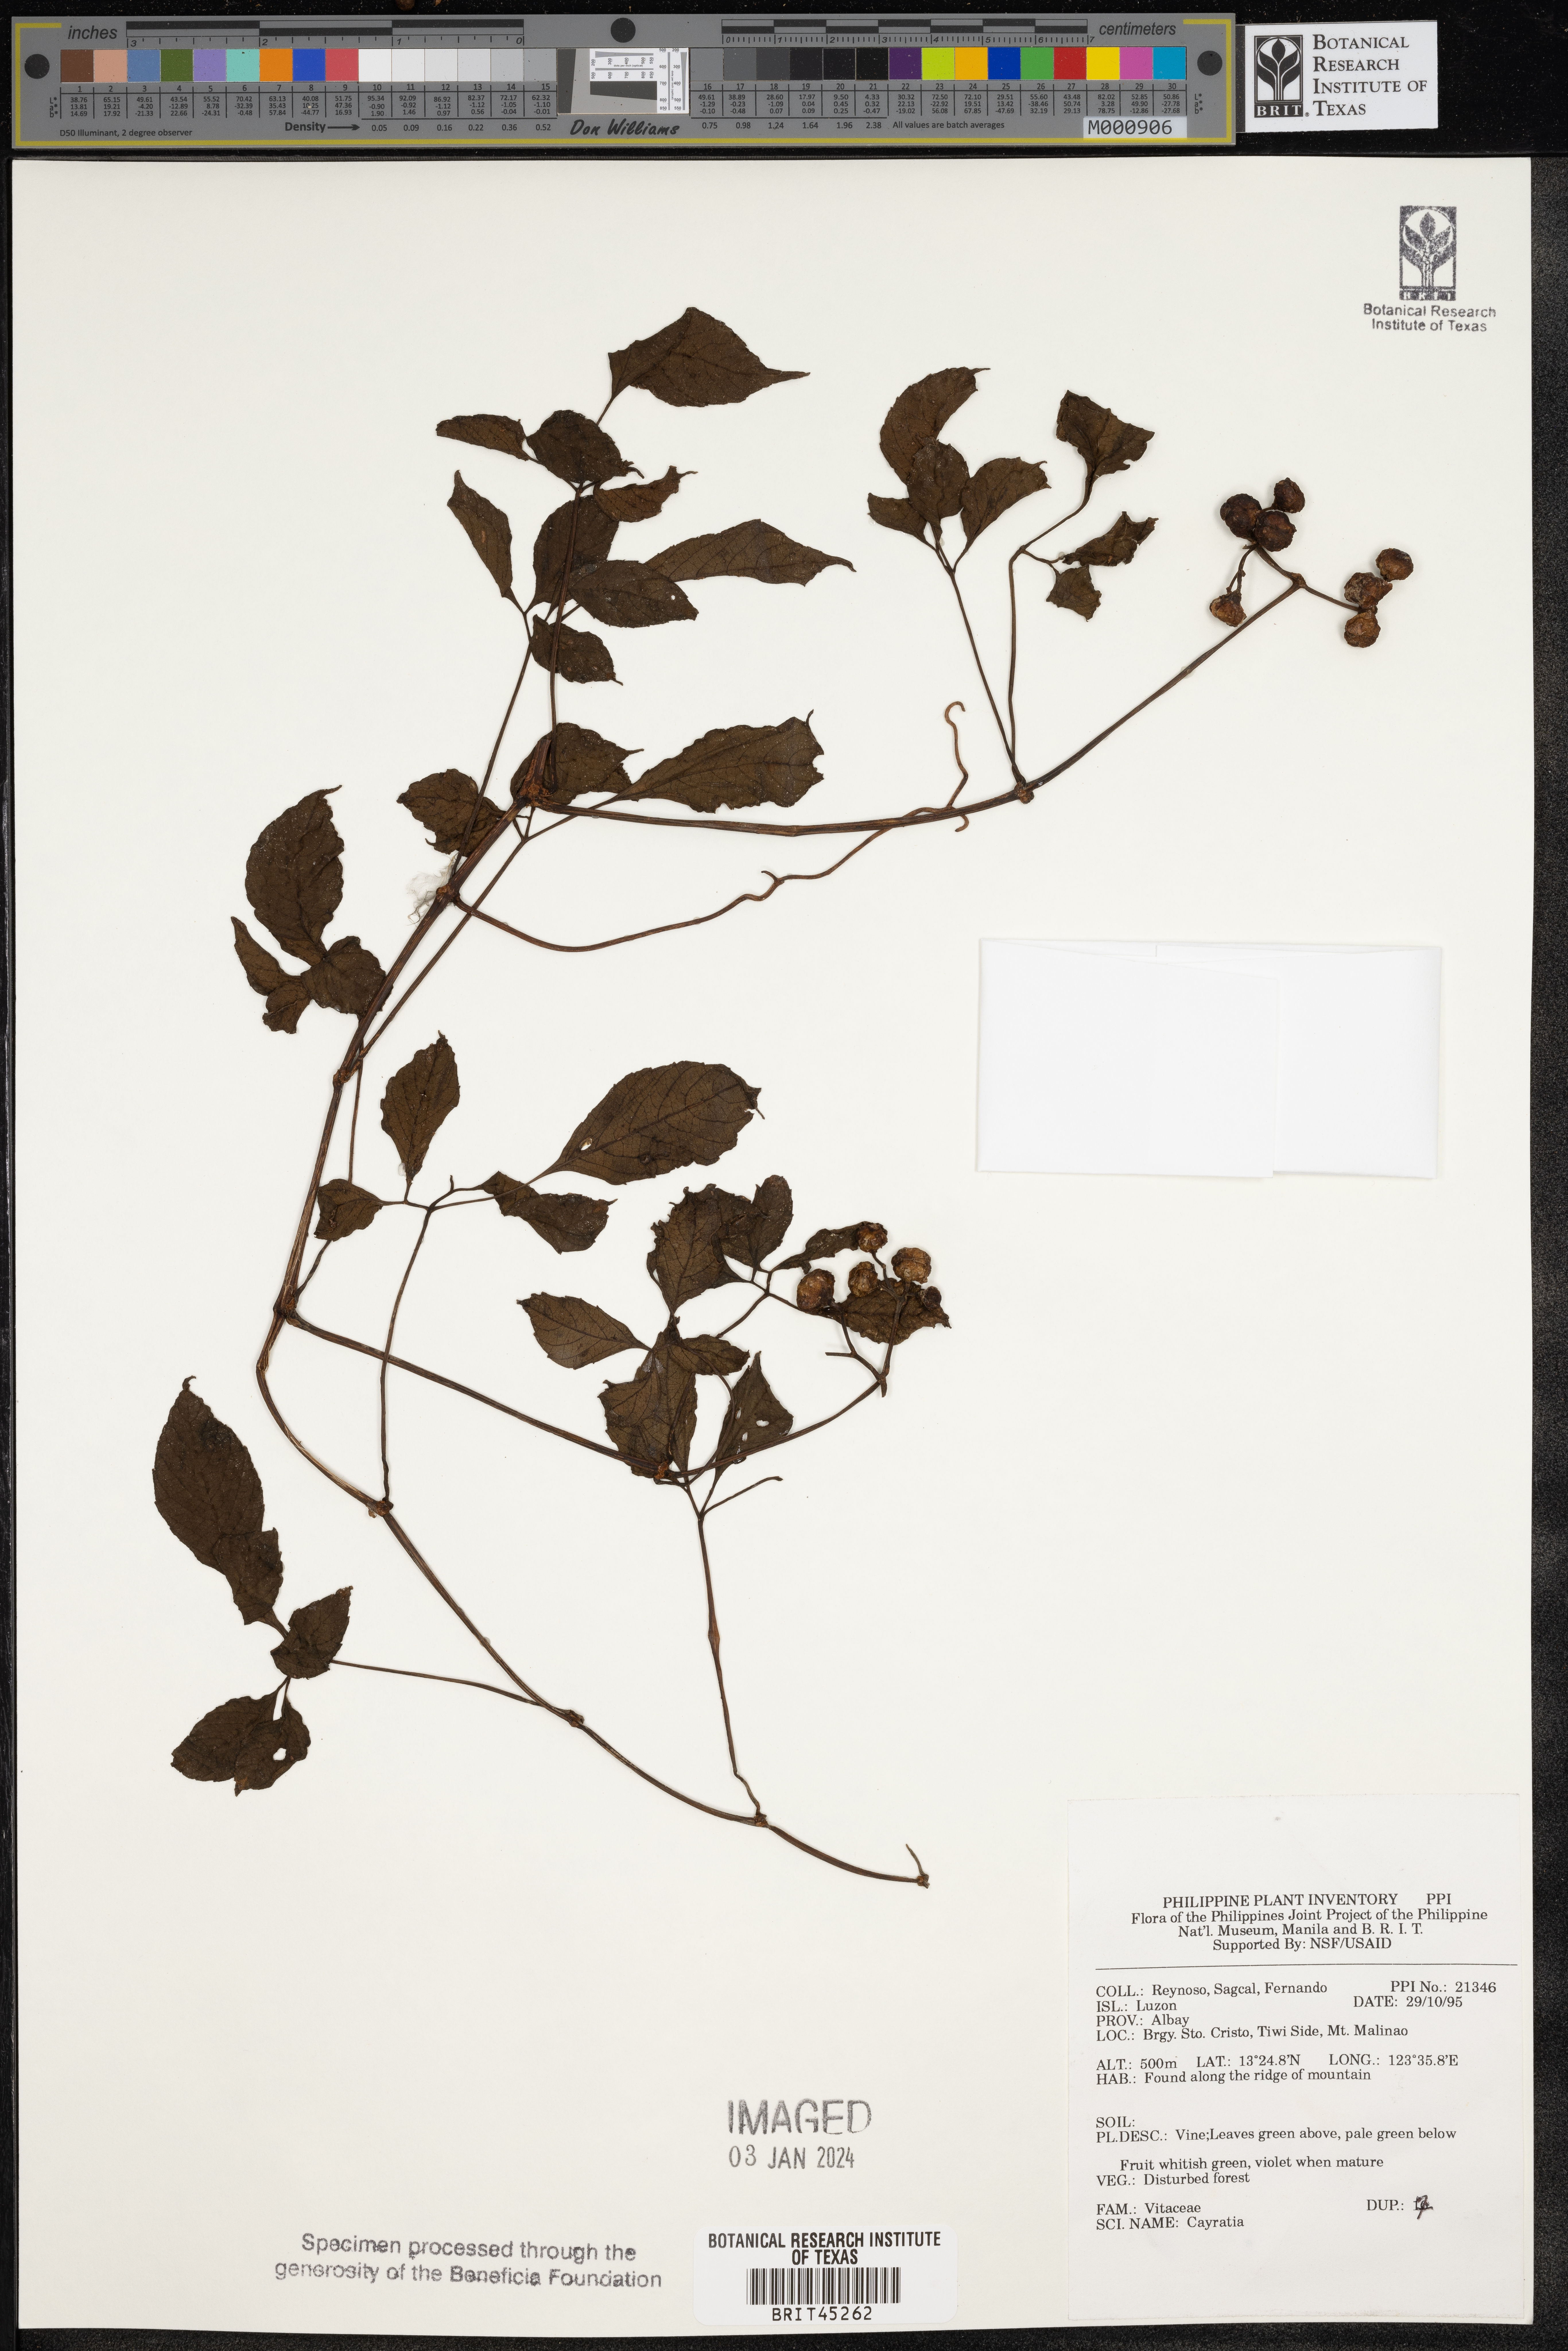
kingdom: Plantae
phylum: Tracheophyta
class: Magnoliopsida
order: Vitales
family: Vitaceae
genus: Cayratia
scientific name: Cayratia
